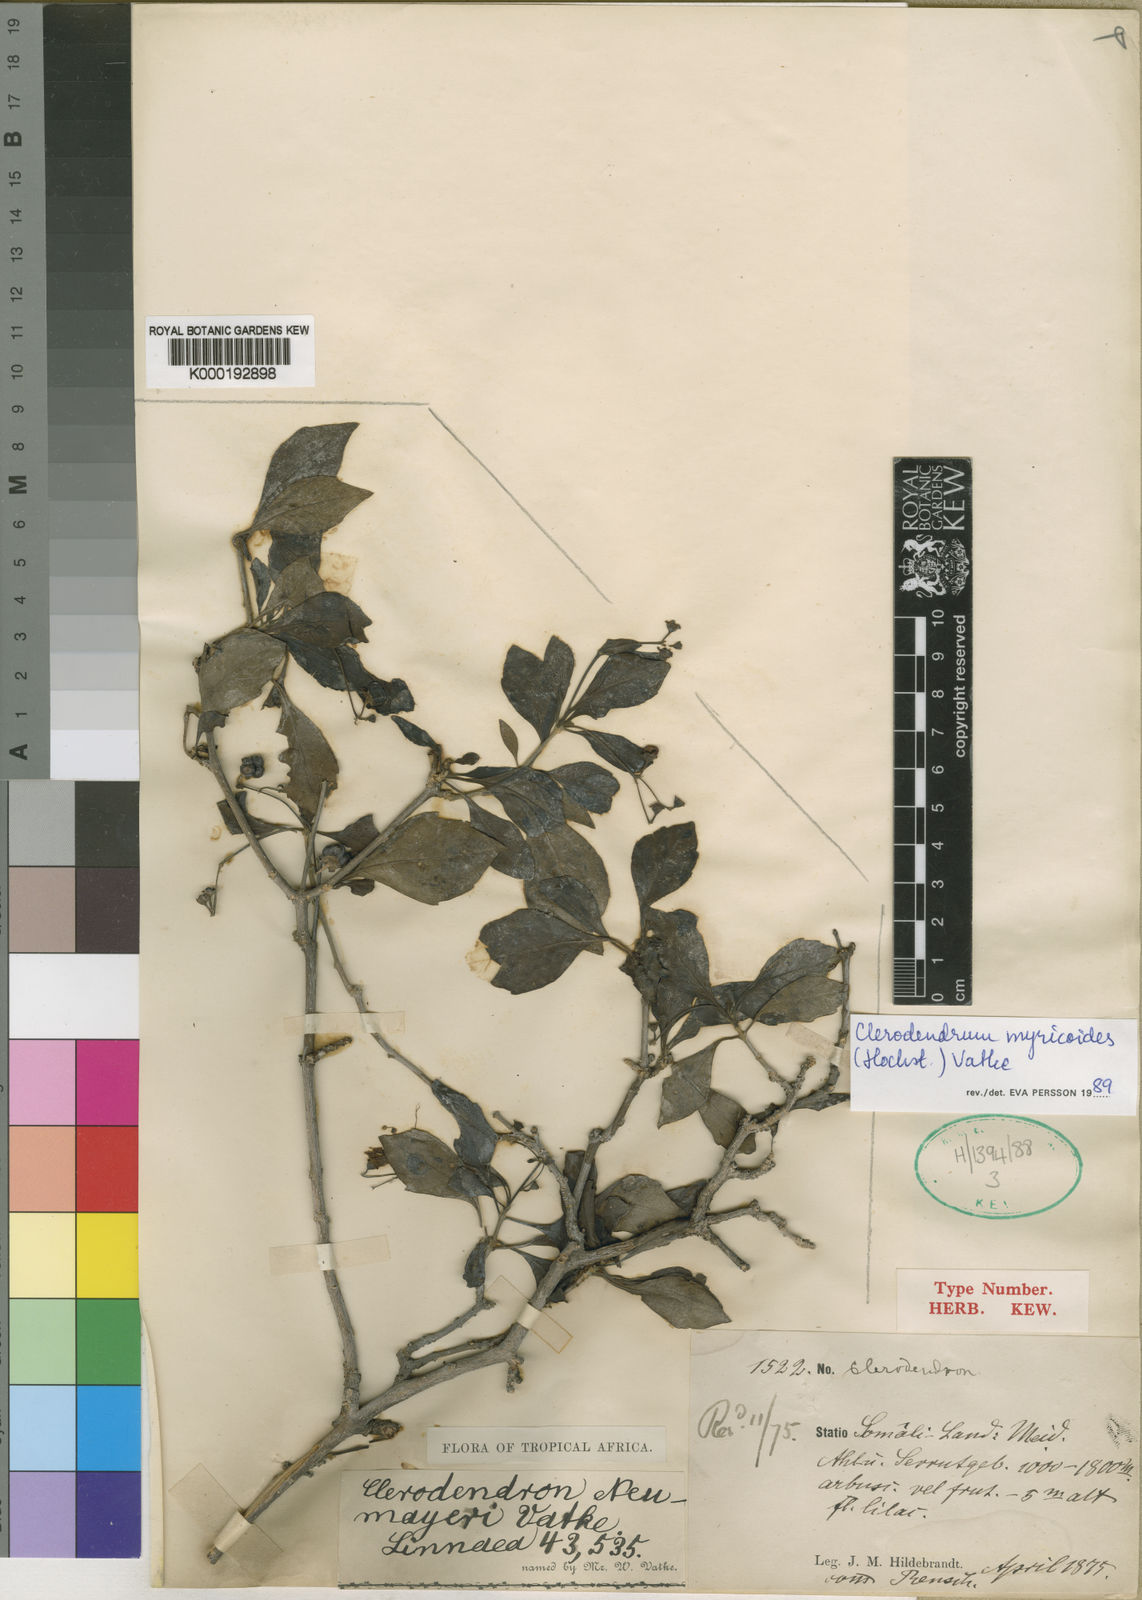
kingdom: Plantae
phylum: Tracheophyta
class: Magnoliopsida
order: Lamiales
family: Lamiaceae
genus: Rotheca
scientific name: Rotheca myricoides
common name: Cats-whiskers
